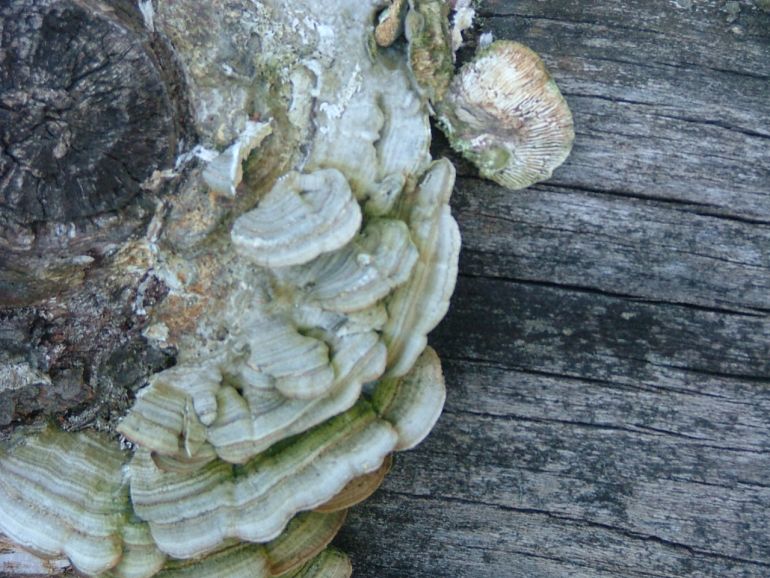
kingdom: Fungi
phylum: Basidiomycota
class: Agaricomycetes
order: Polyporales
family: Polyporaceae
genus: Lenzites
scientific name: Lenzites betulinus
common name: birke-læderporesvamp
